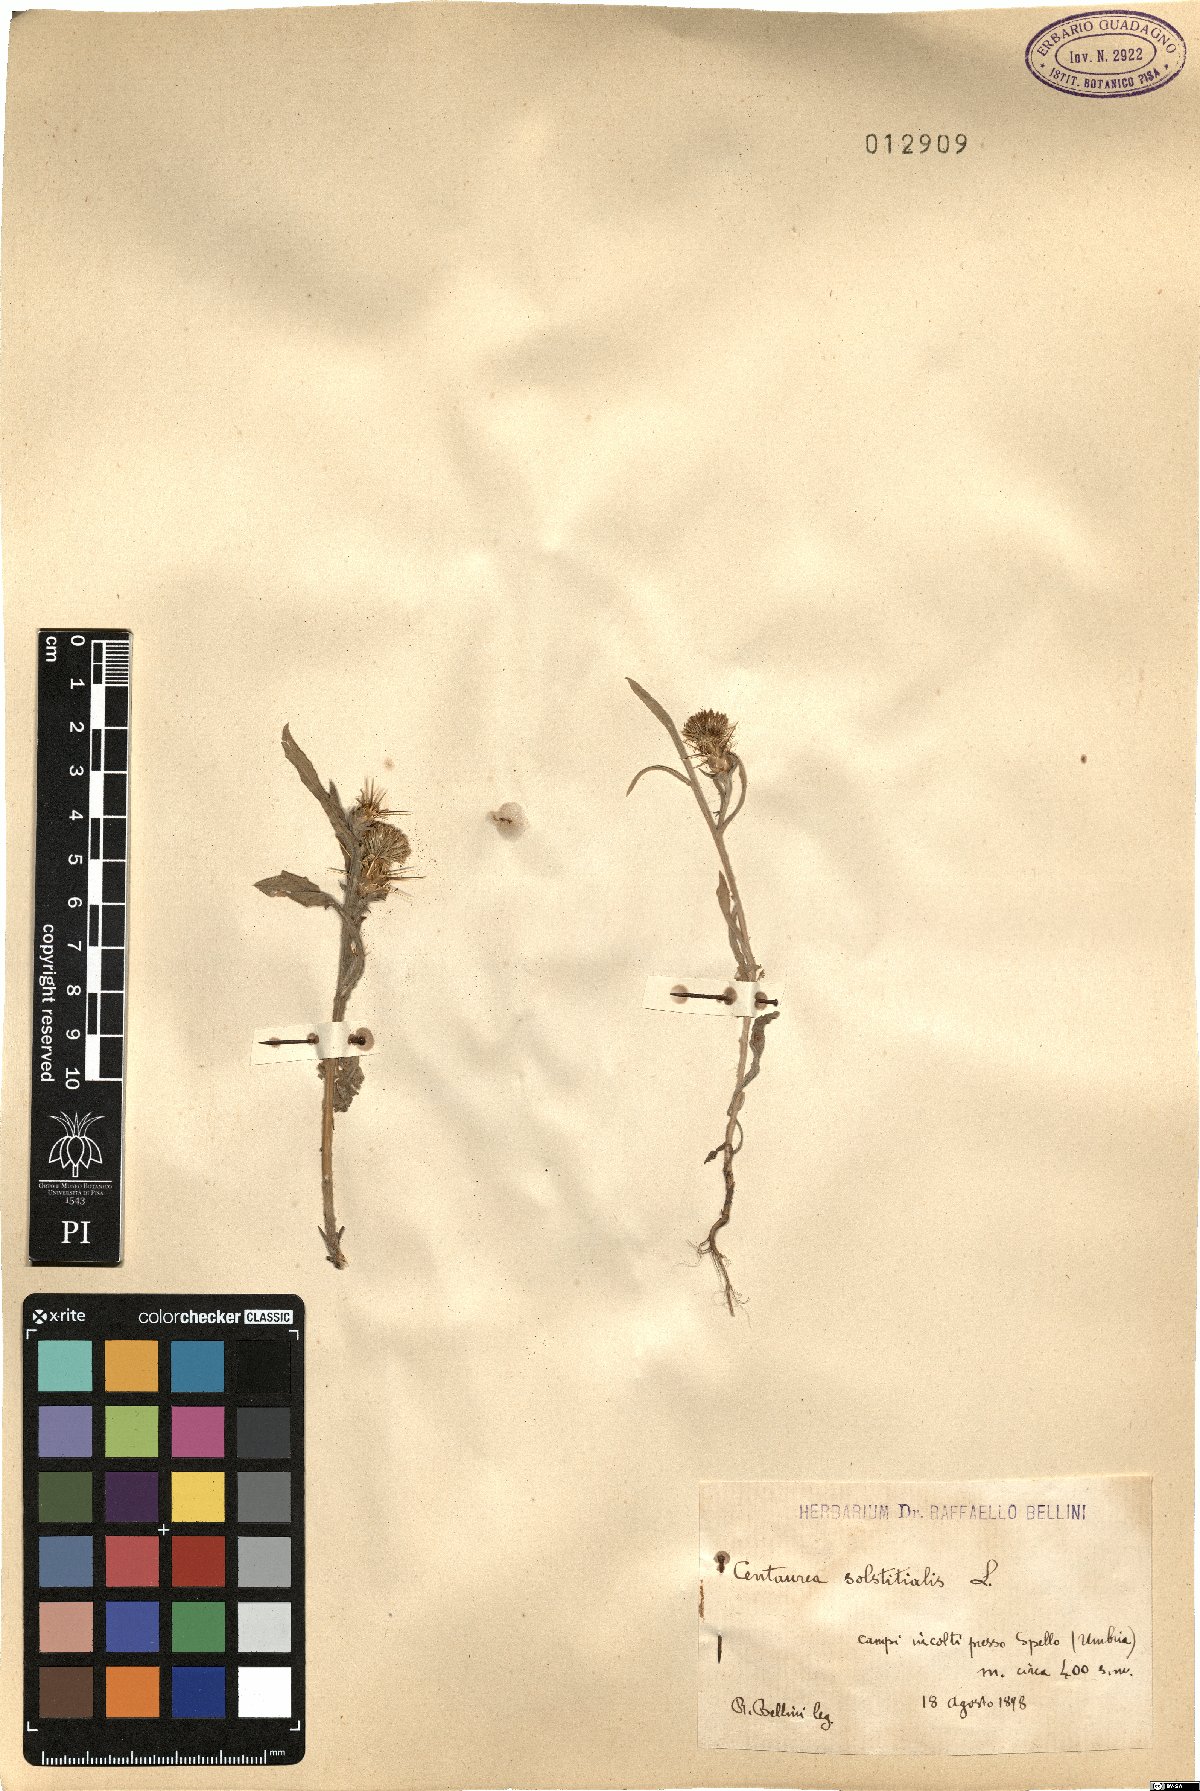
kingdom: Plantae
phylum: Tracheophyta
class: Magnoliopsida
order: Asterales
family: Asteraceae
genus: Centaurea
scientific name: Centaurea solstitialis
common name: Yellow star-thistle
